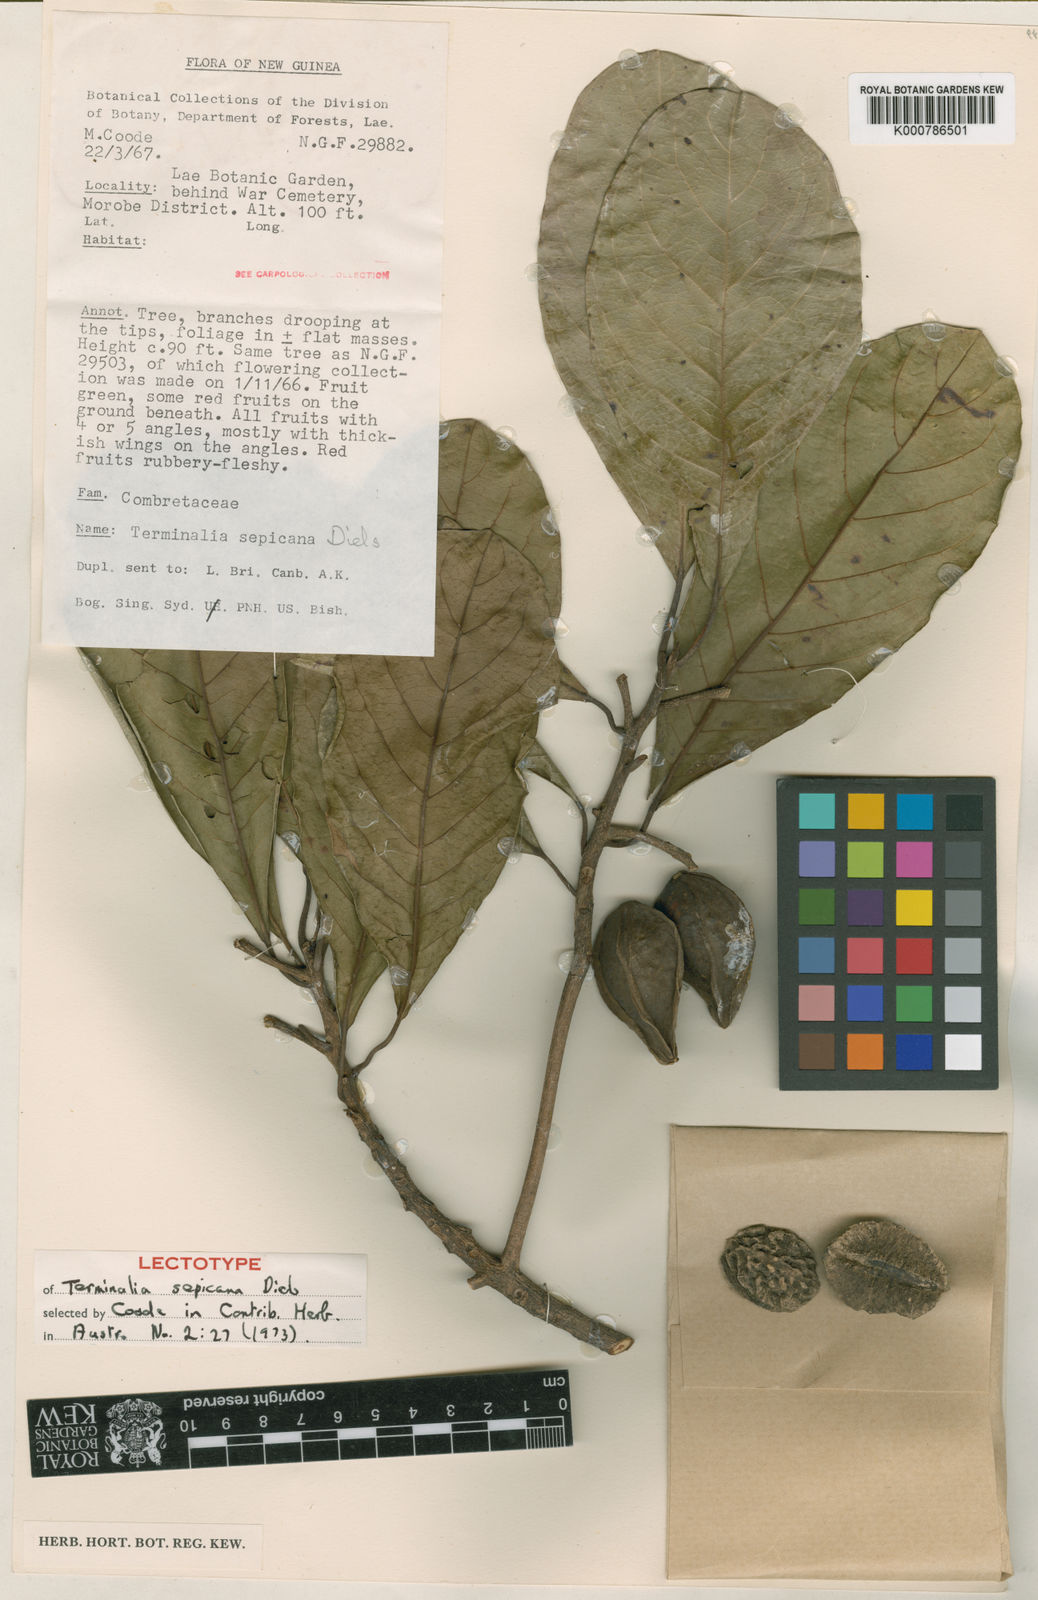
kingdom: Plantae
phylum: Tracheophyta
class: Magnoliopsida
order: Myrtales
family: Combretaceae
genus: Terminalia
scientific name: Terminalia sepicana
